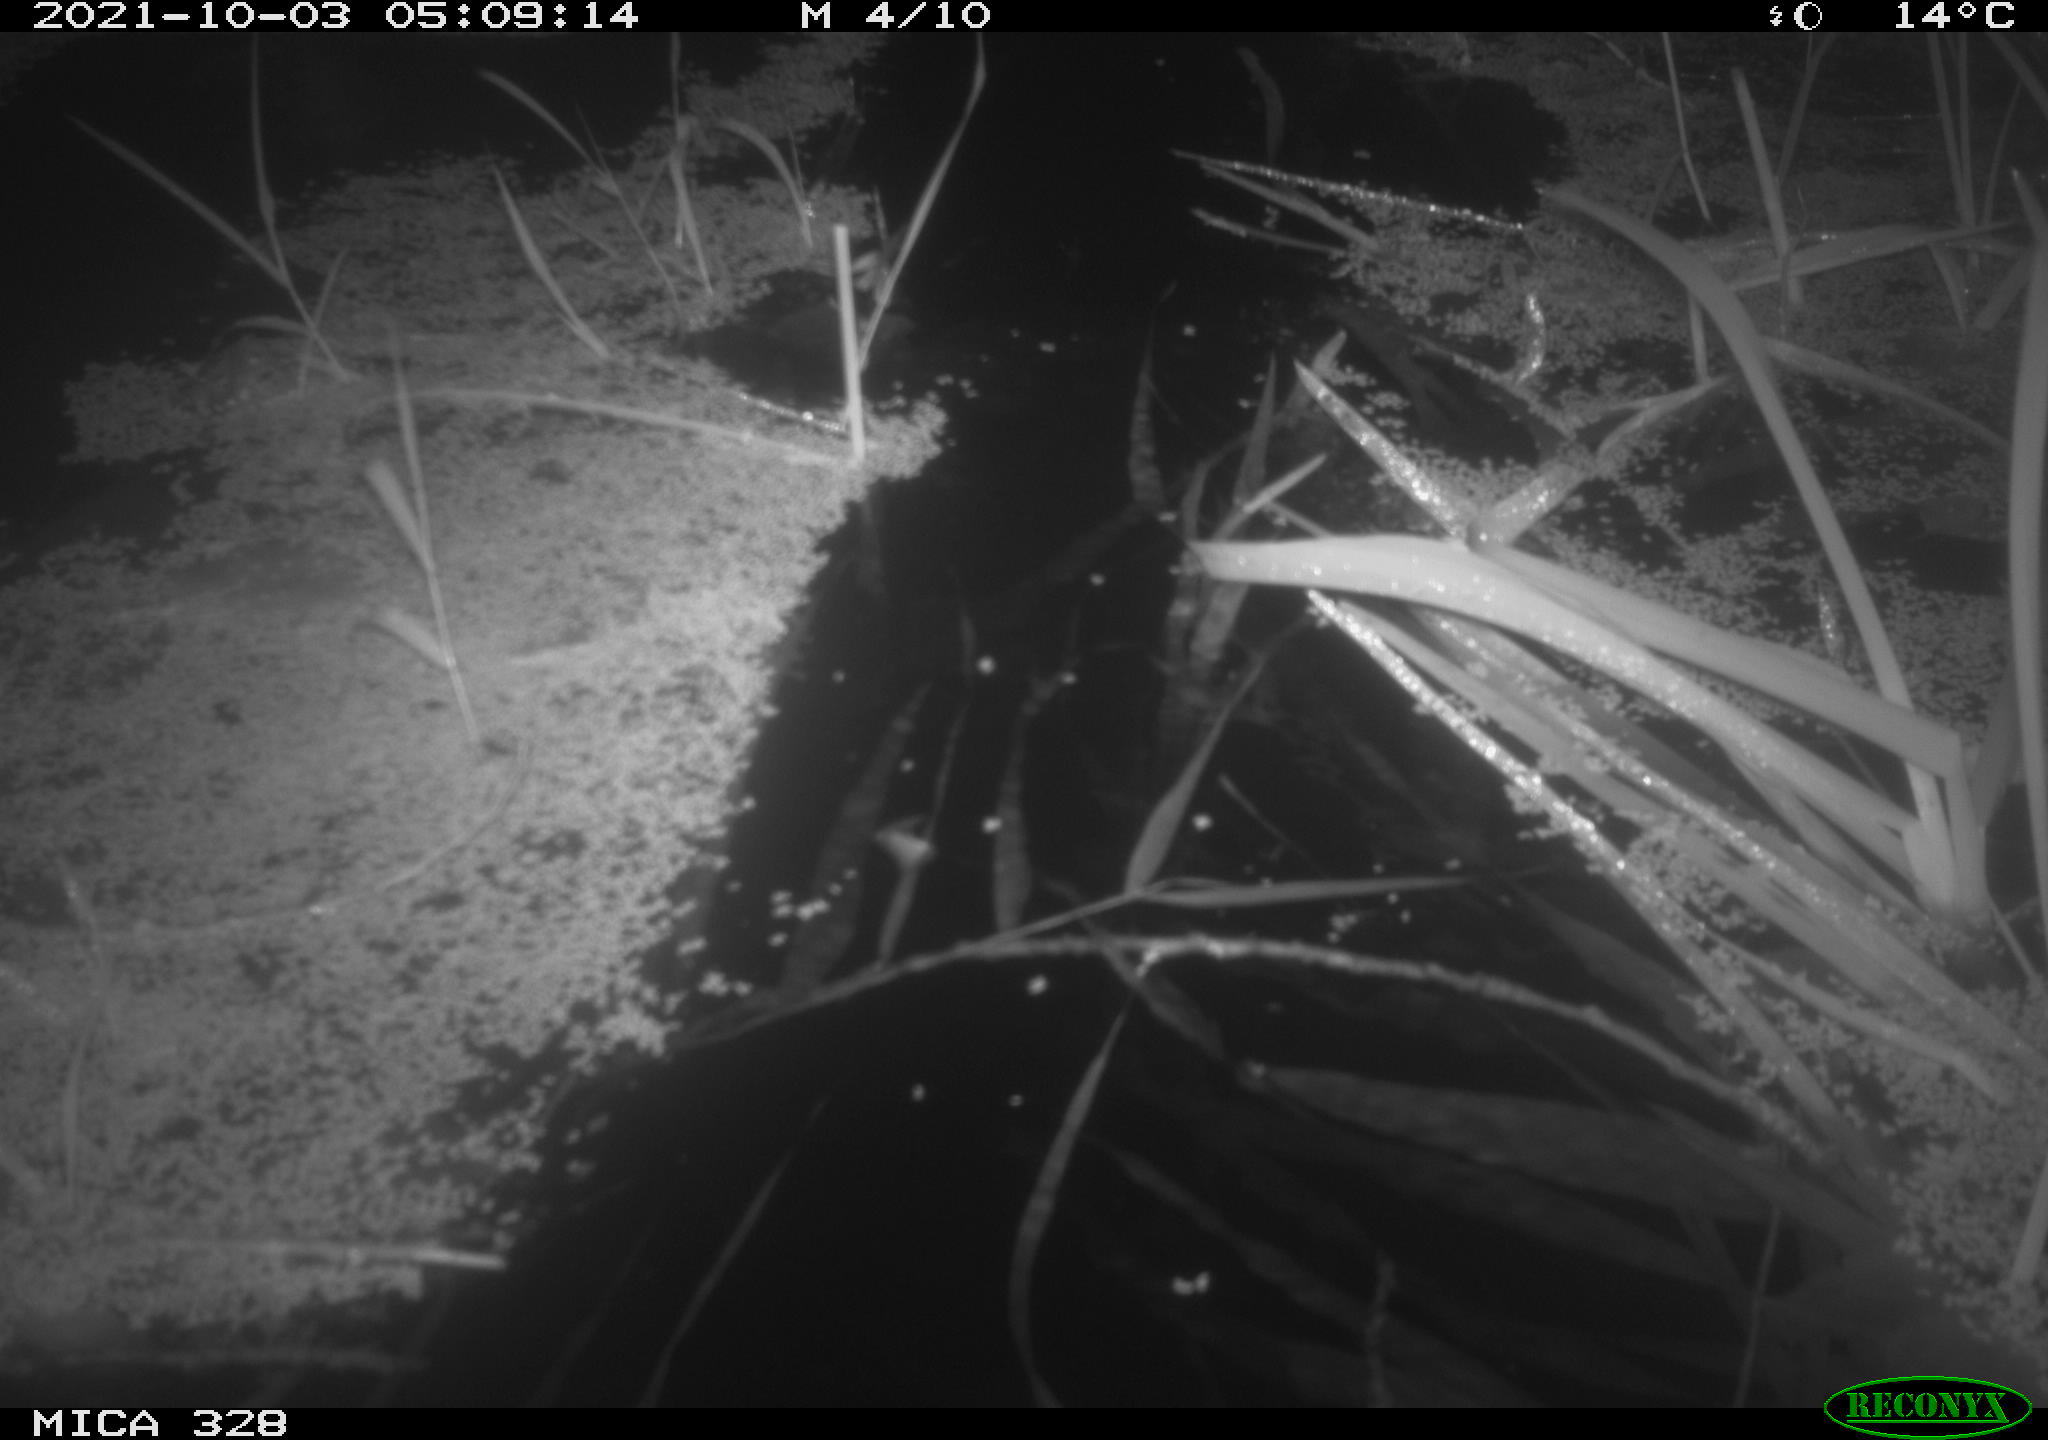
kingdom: Animalia
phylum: Chordata
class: Mammalia
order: Rodentia
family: Cricetidae
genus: Ondatra
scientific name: Ondatra zibethicus
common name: Muskrat
